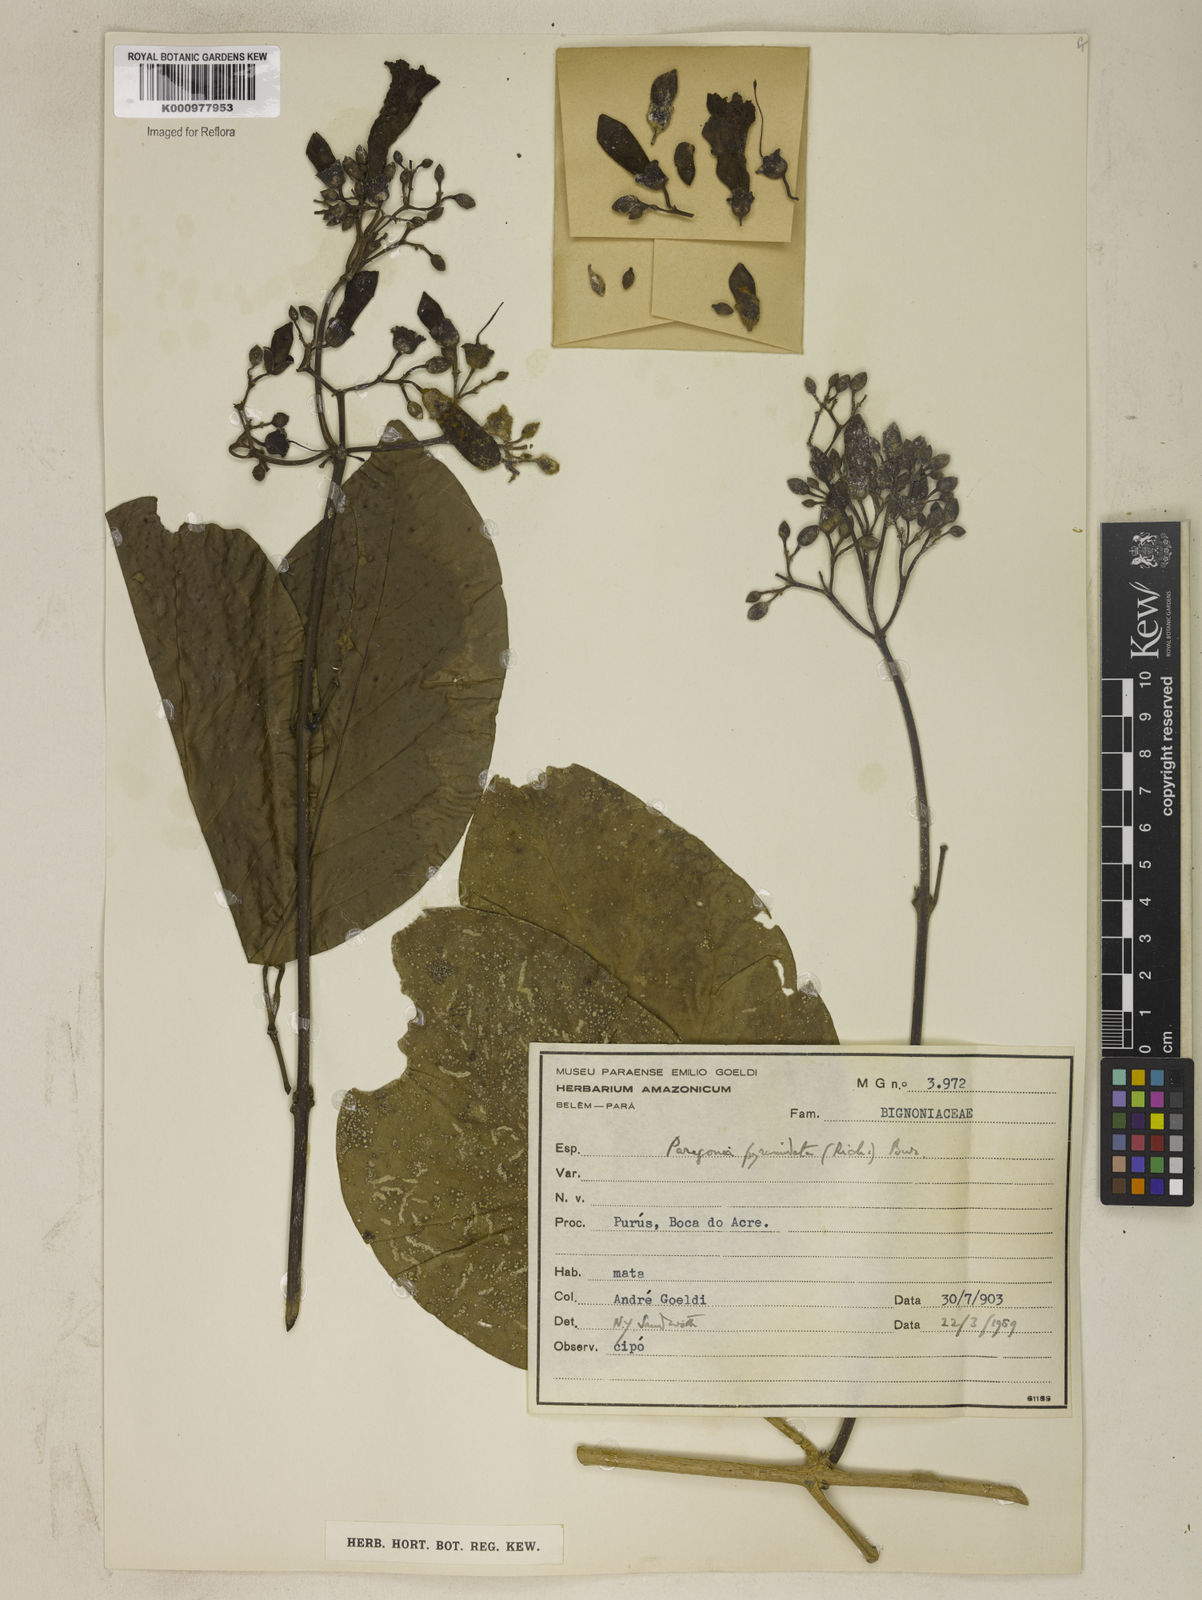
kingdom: Plantae
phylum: Tracheophyta
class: Magnoliopsida
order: Lamiales
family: Bignoniaceae
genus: Tanaecium
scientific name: Tanaecium pyramidatum
